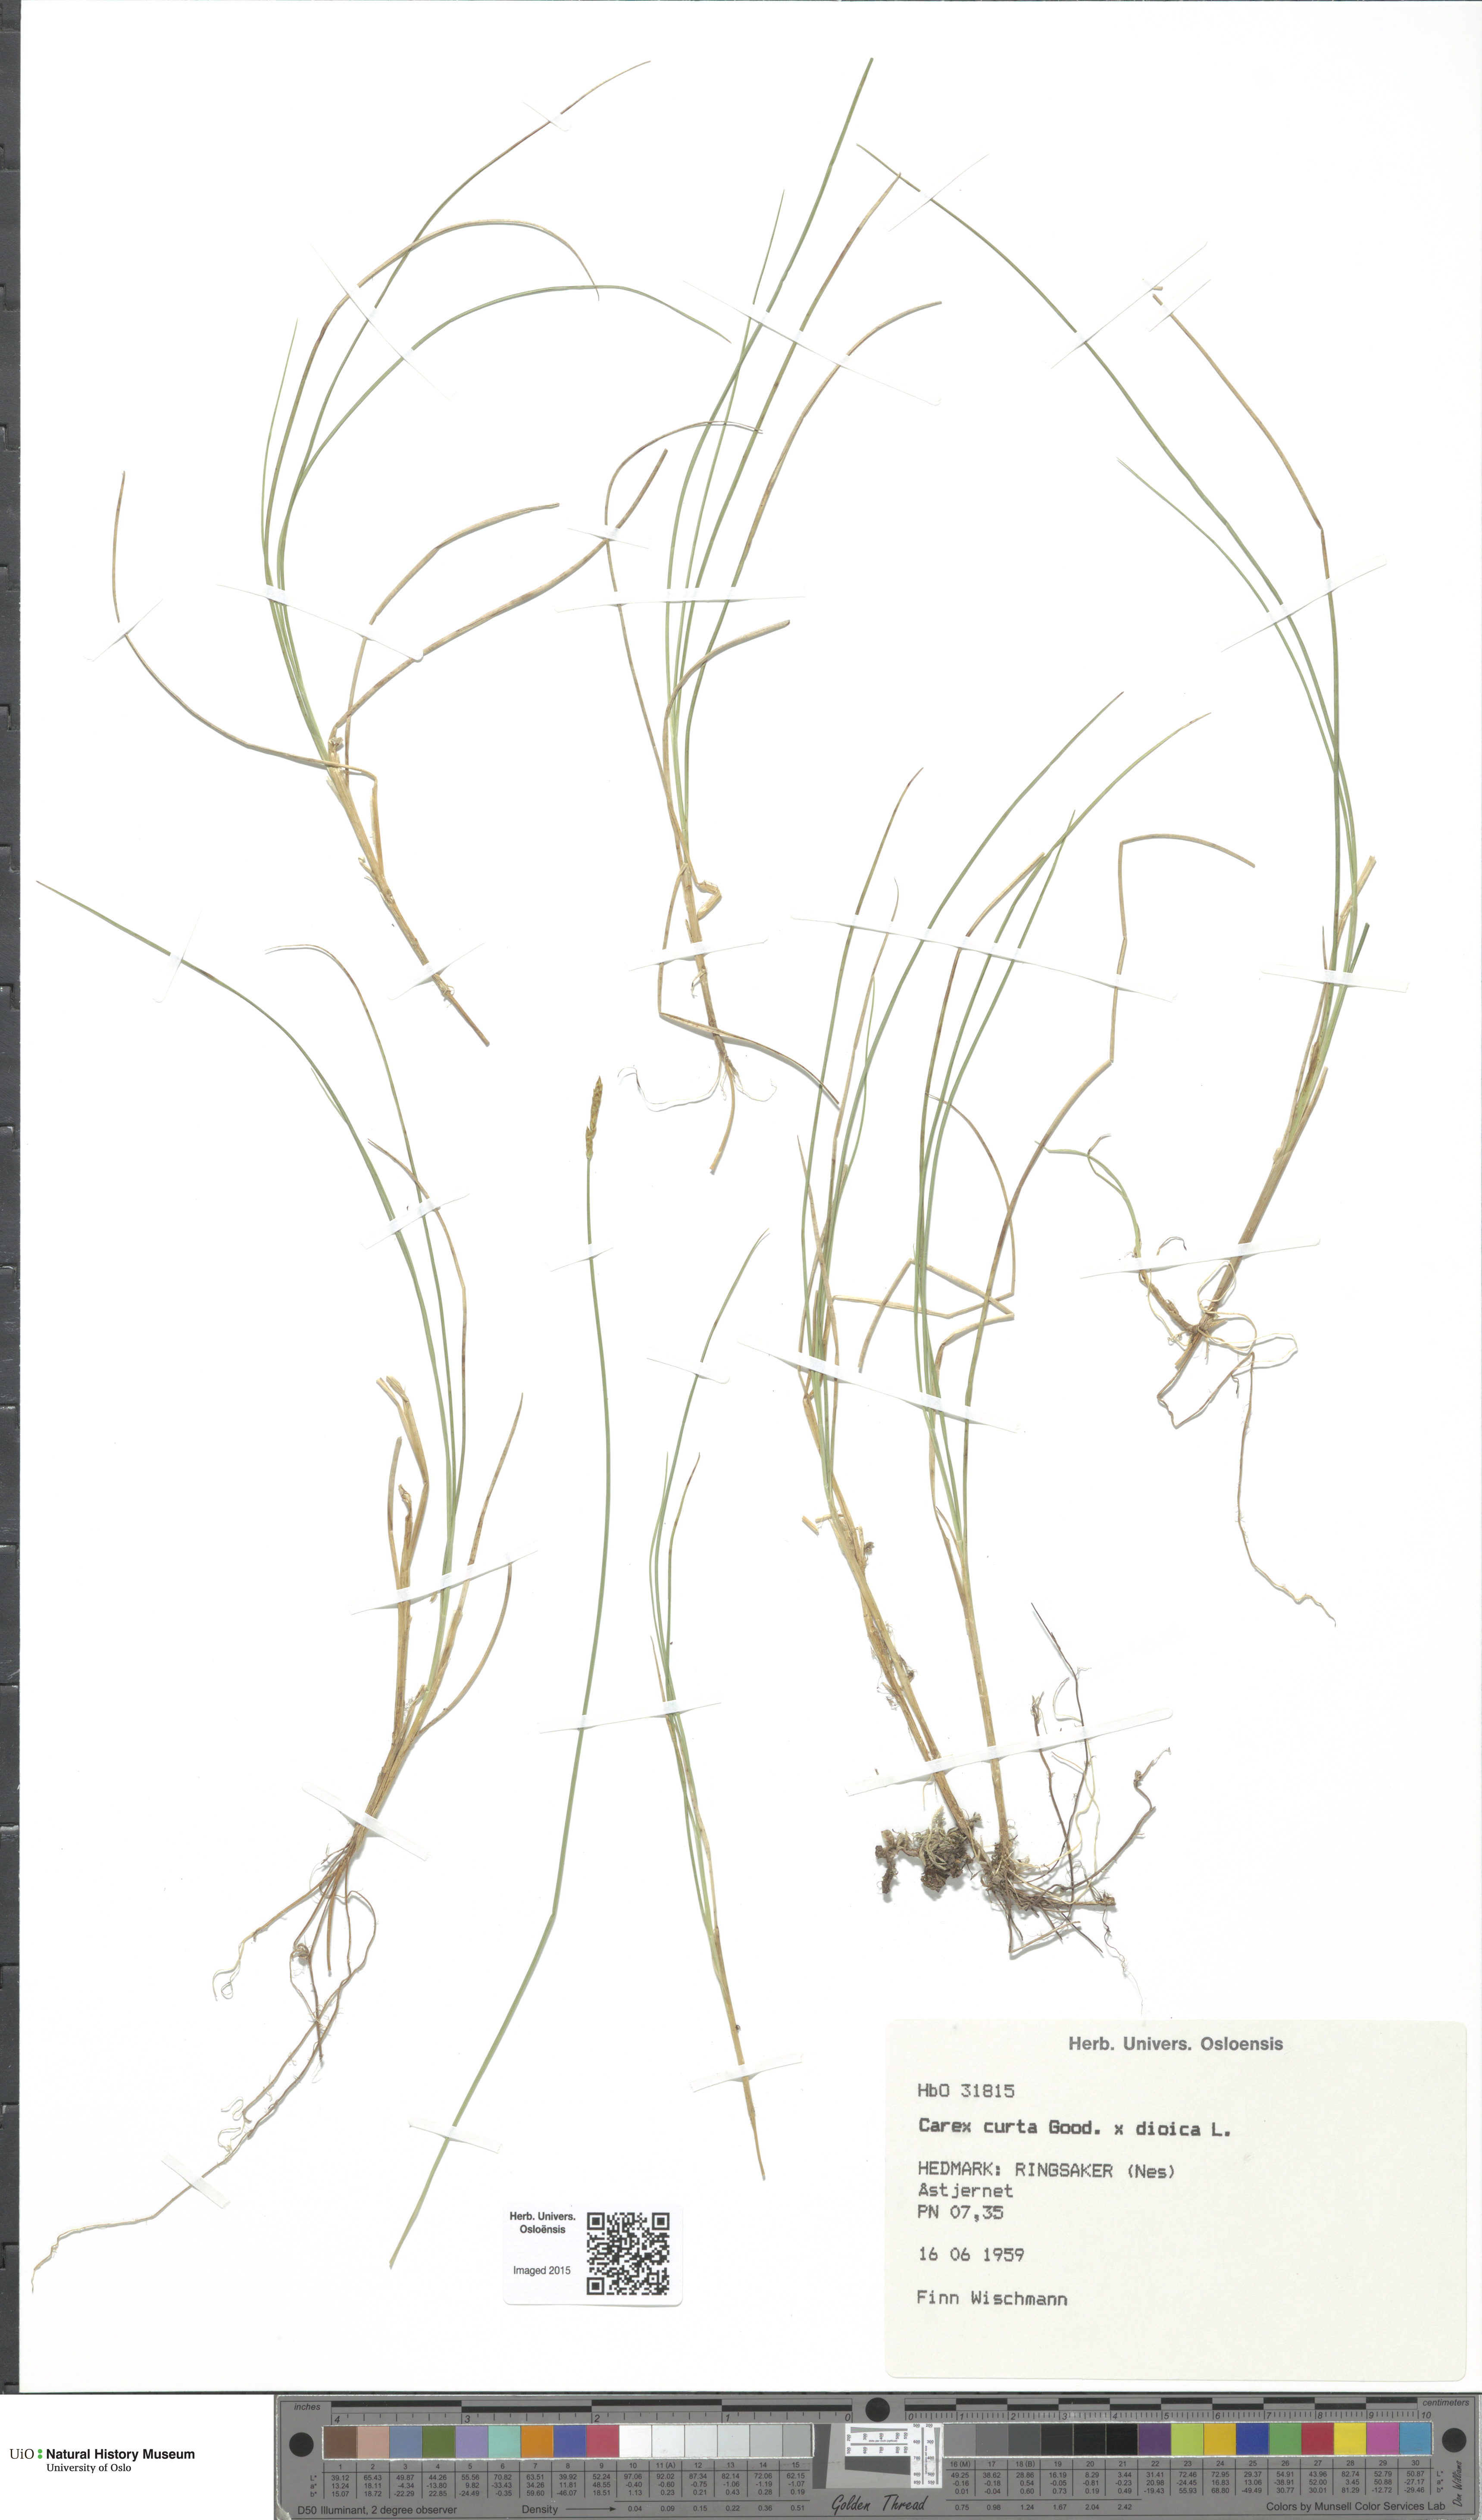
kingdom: Plantae
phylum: Tracheophyta
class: Liliopsida
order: Poales
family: Cyperaceae
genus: Carex
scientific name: Carex
